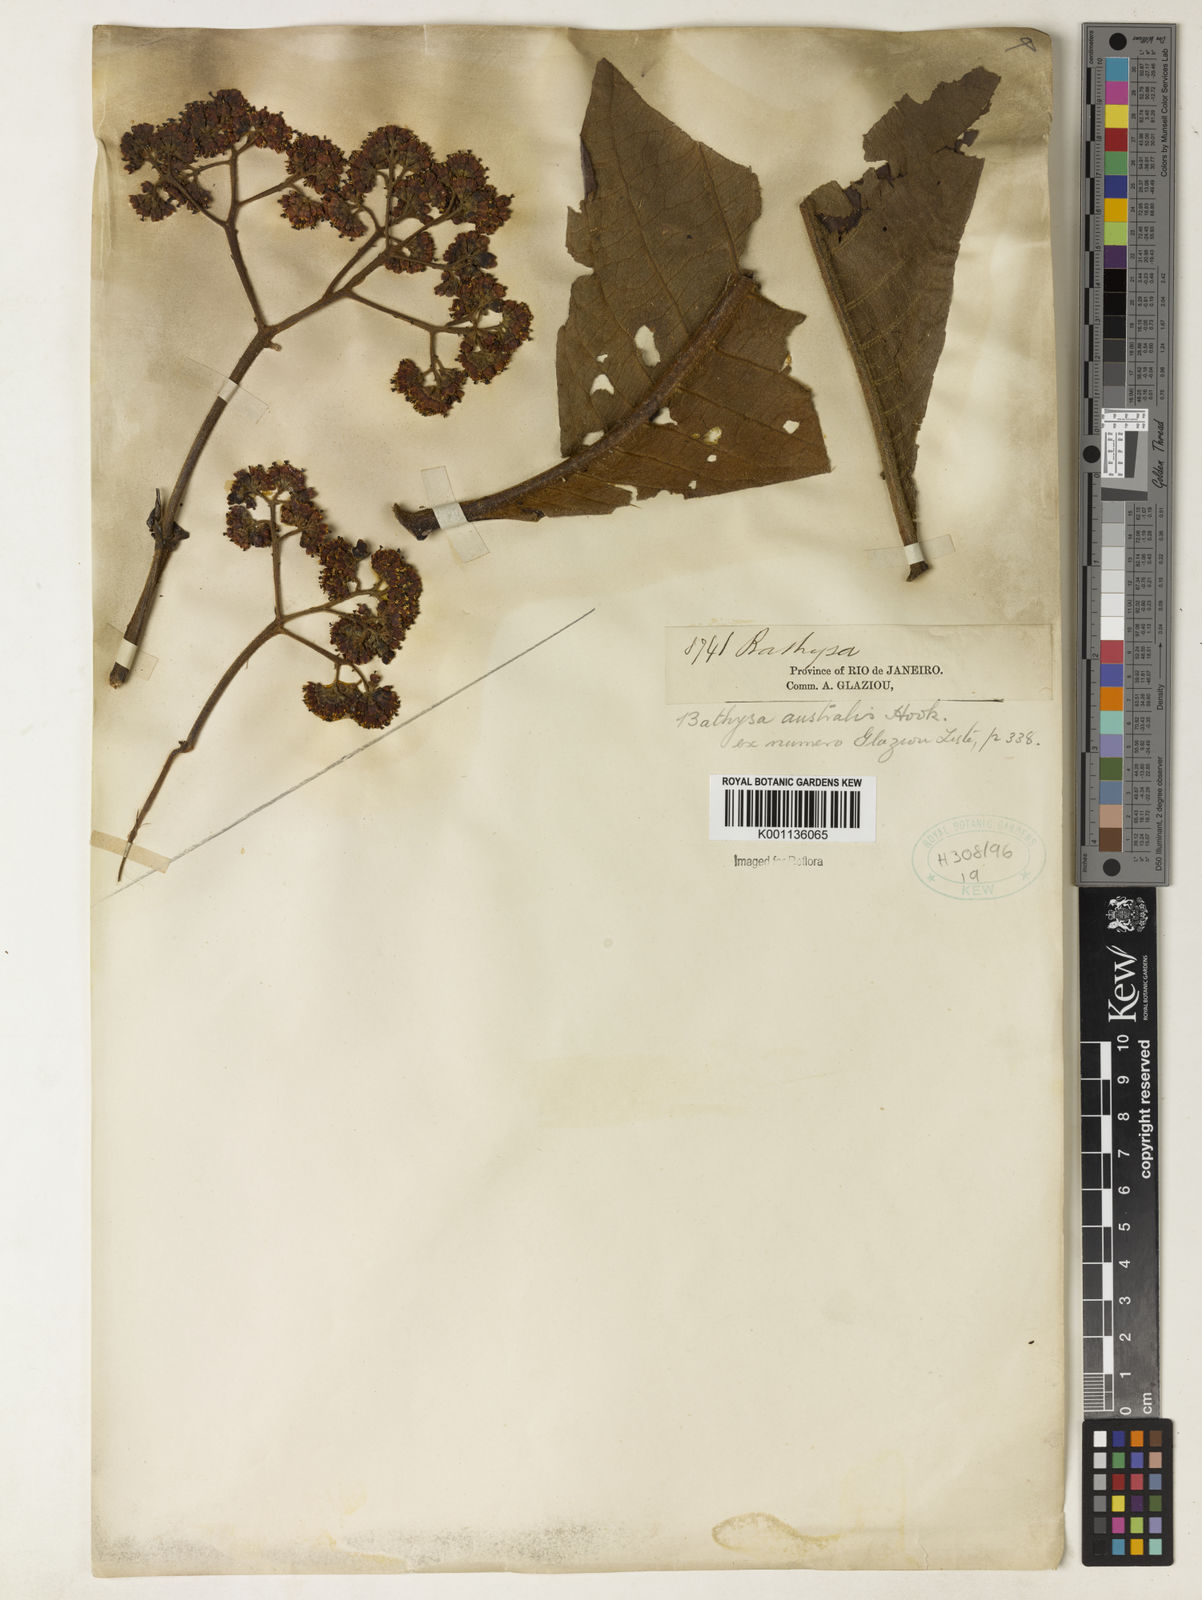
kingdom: Plantae
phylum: Tracheophyta
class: Magnoliopsida
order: Gentianales
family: Rubiaceae
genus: Bathysa
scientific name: Bathysa australis
